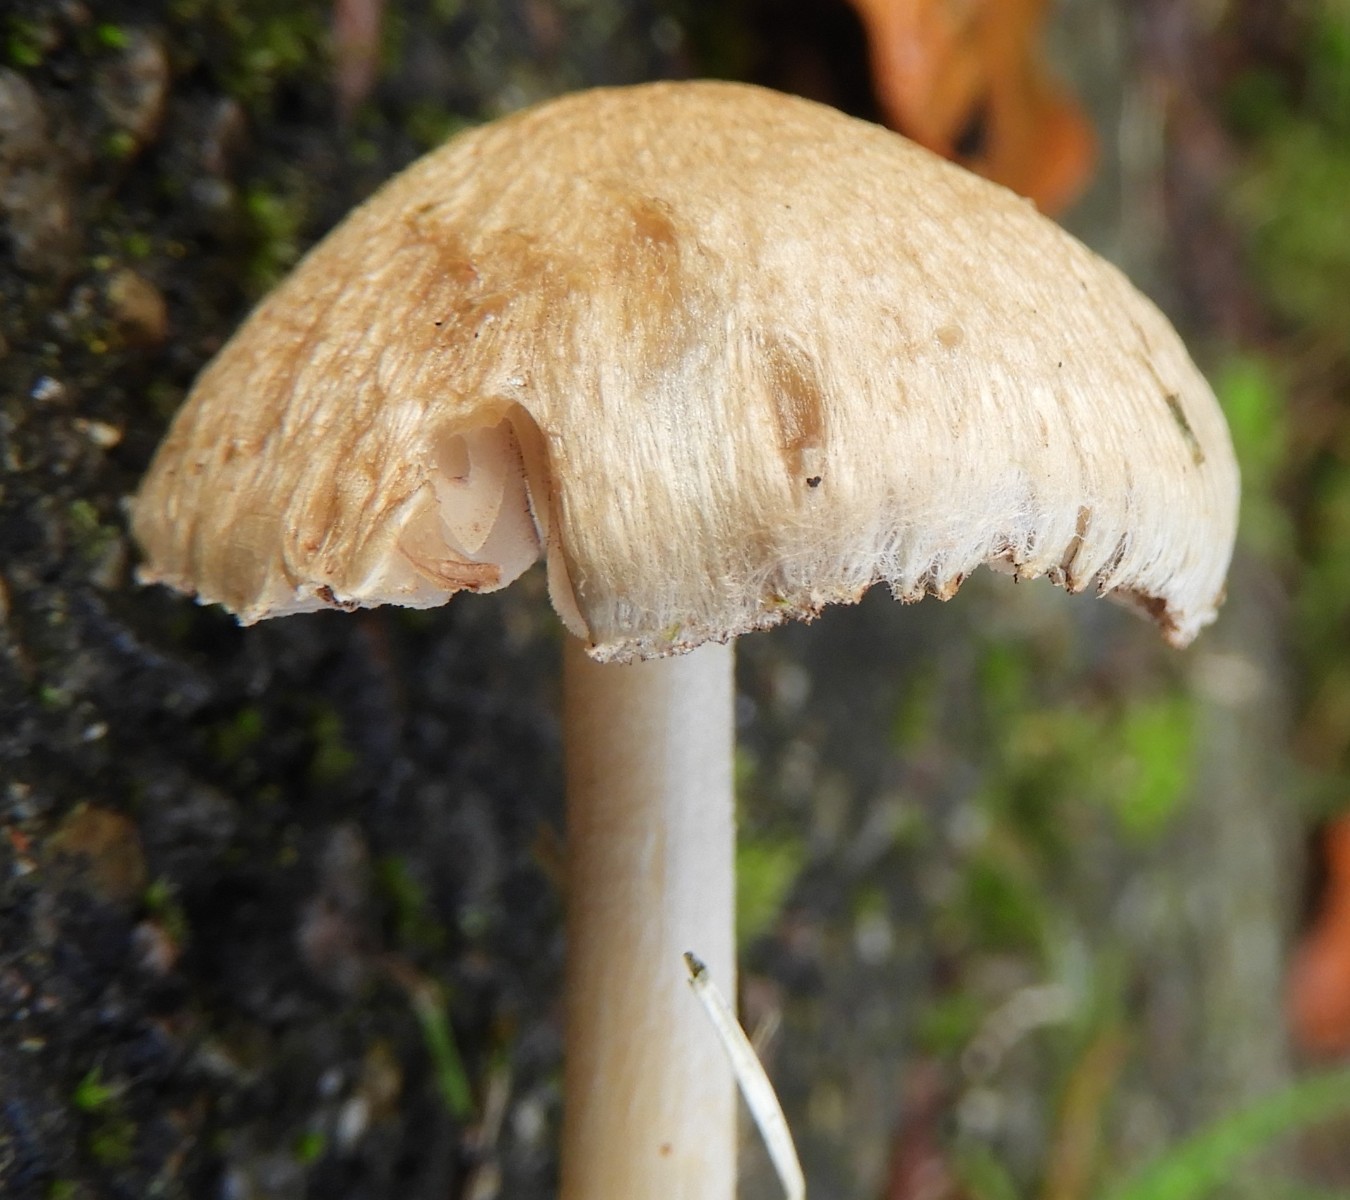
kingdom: Fungi
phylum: Basidiomycota
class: Agaricomycetes
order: Agaricales
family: Inocybaceae
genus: Inocybe
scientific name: Inocybe
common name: trævlhat
